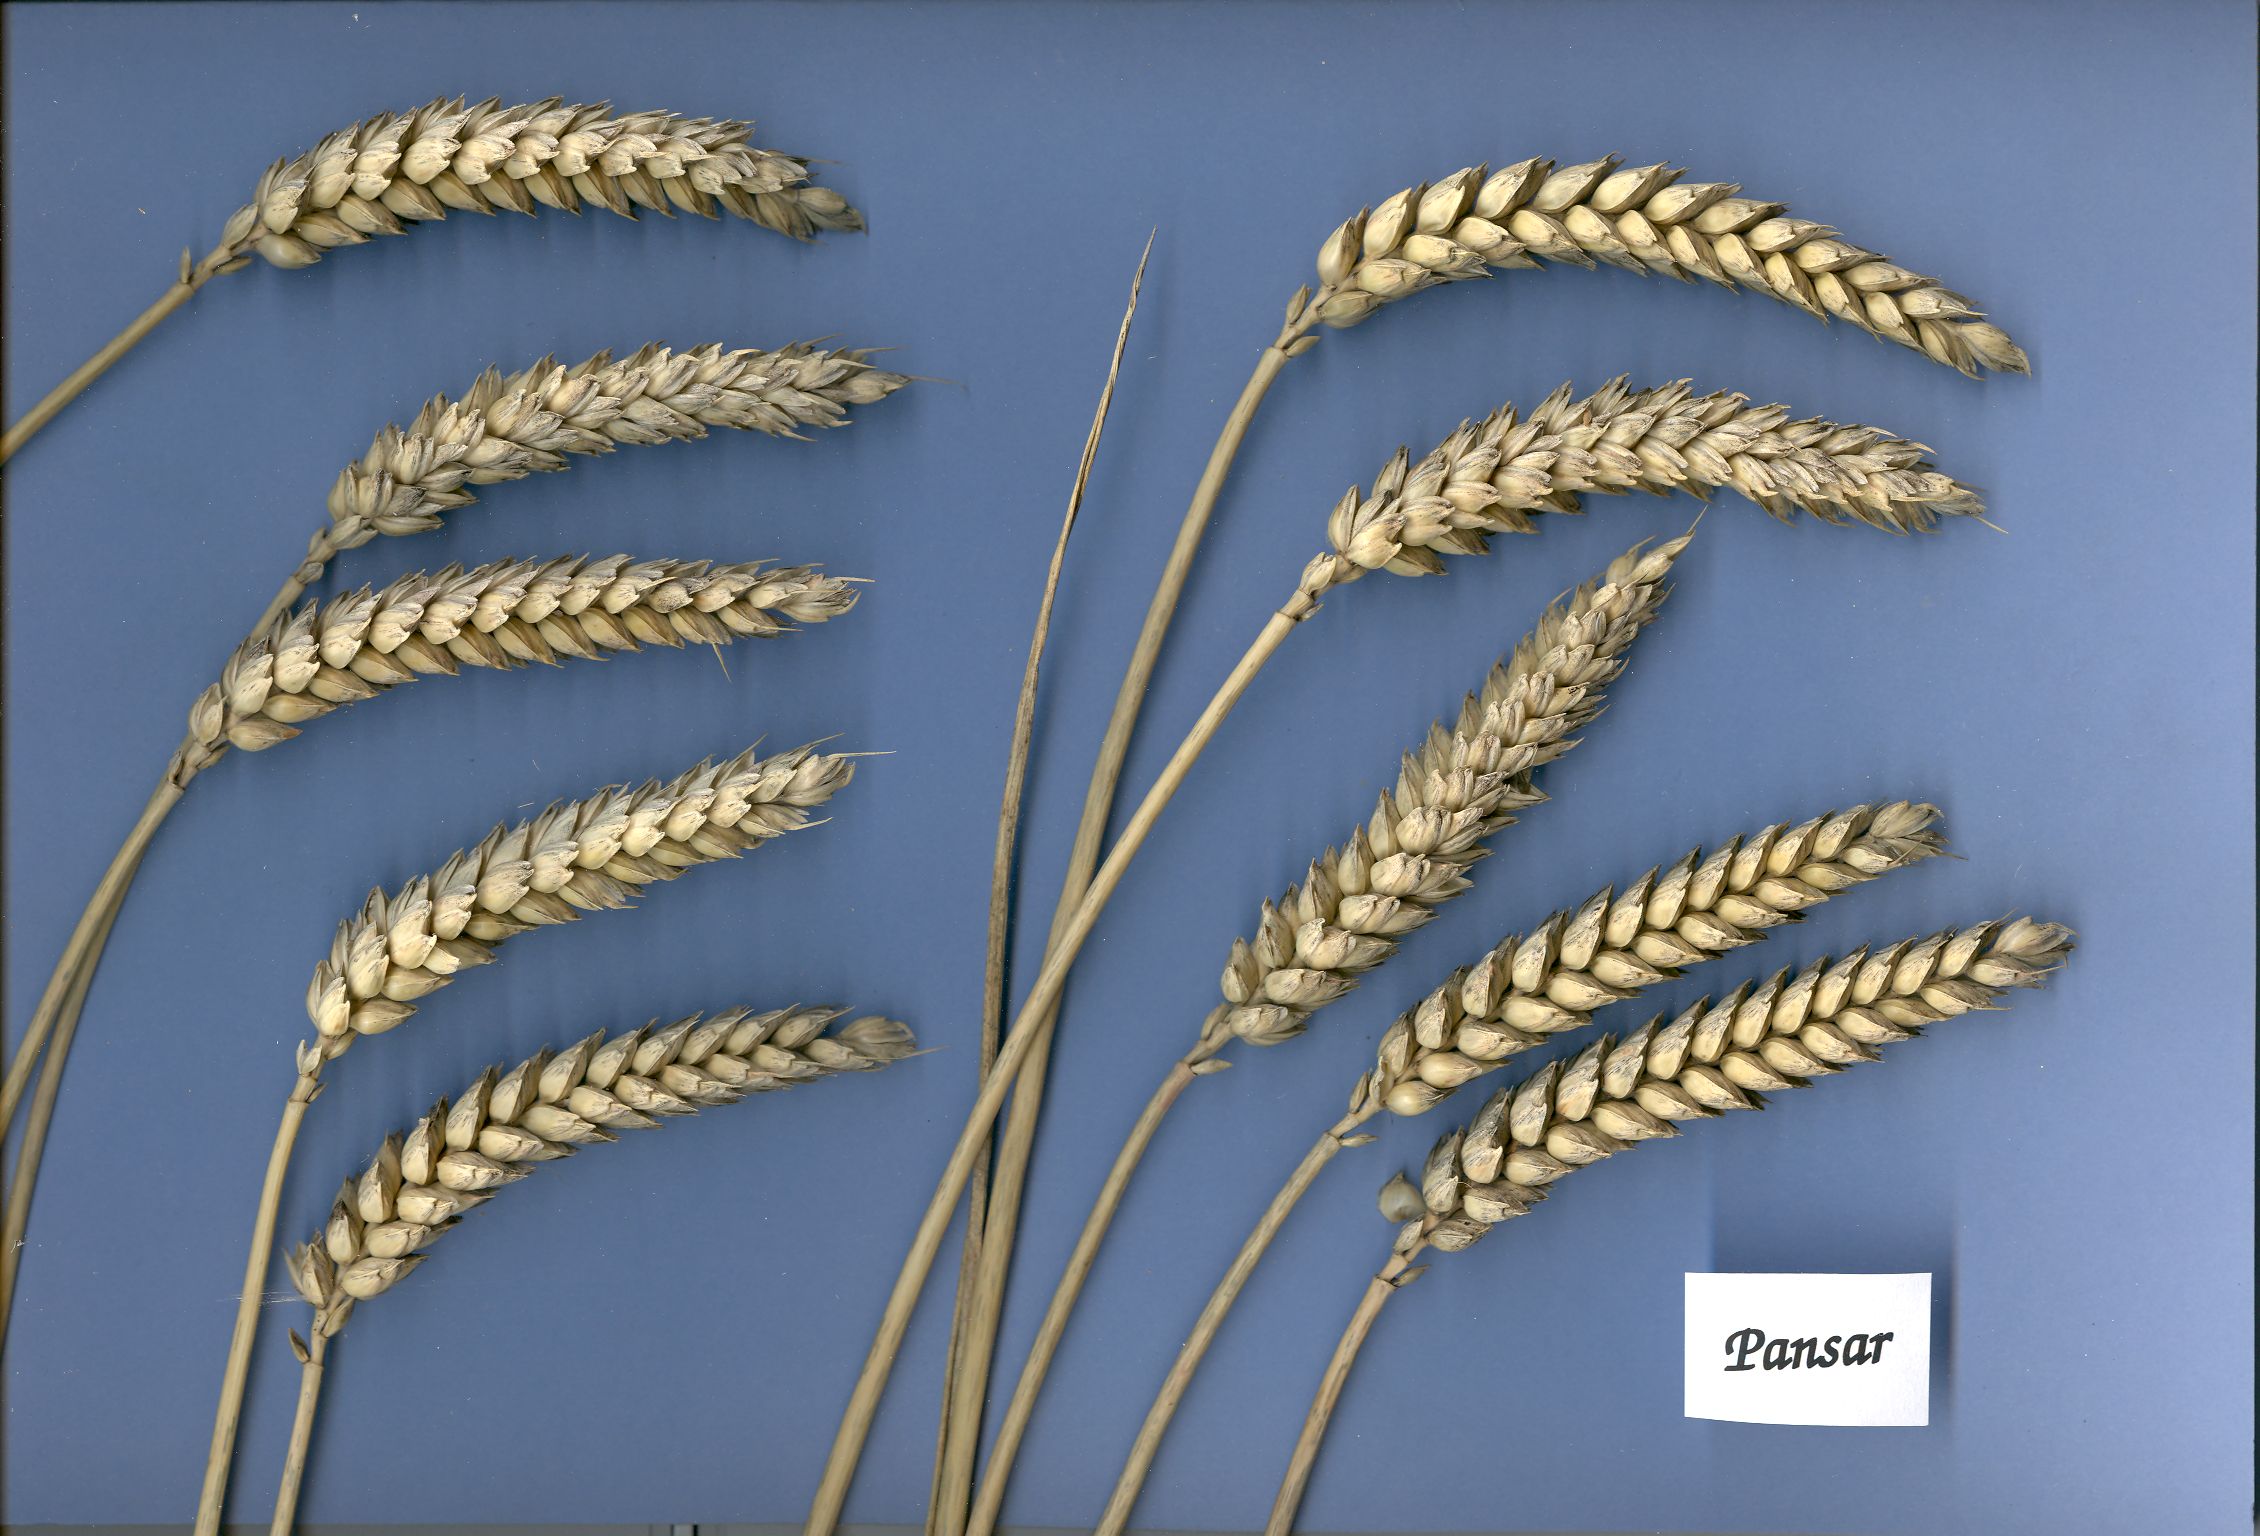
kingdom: Plantae
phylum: Tracheophyta
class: Liliopsida
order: Poales
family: Poaceae
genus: Triticum
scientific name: Triticum aestivum
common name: Common wheat
